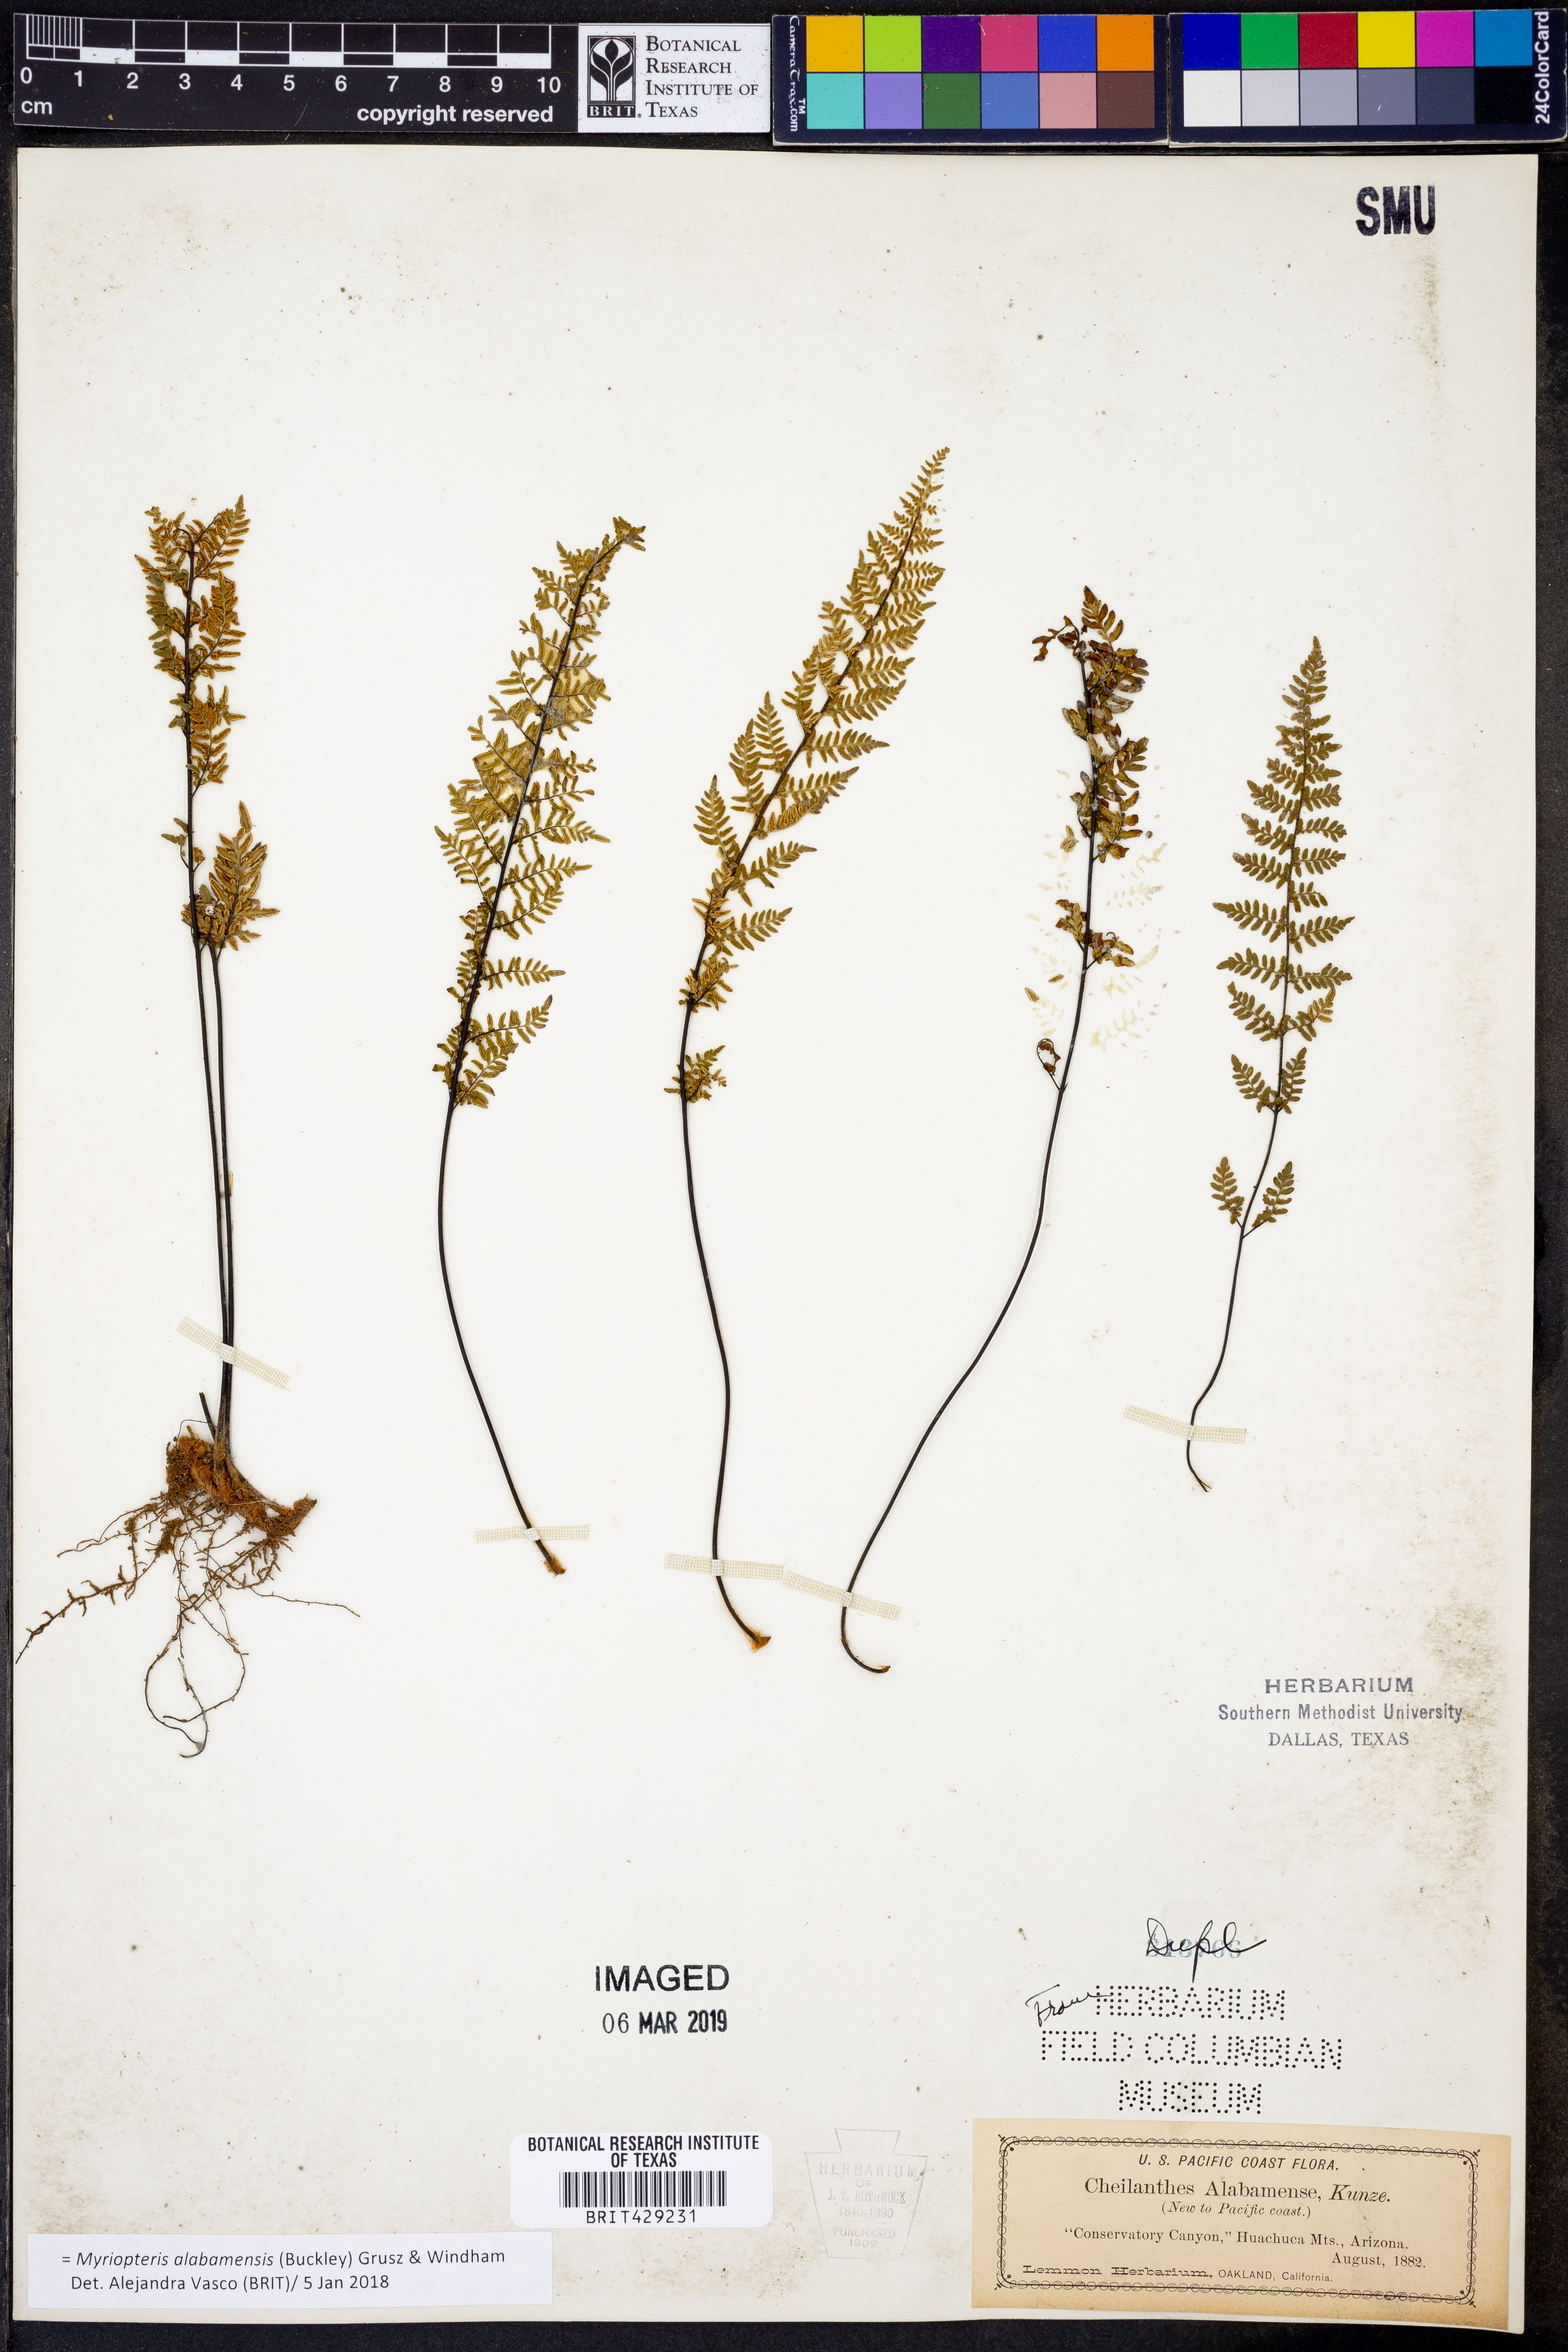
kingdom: Plantae
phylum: Tracheophyta
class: Polypodiopsida
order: Polypodiales
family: Pteridaceae
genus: Myriopteris
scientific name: Myriopteris alabamensis
